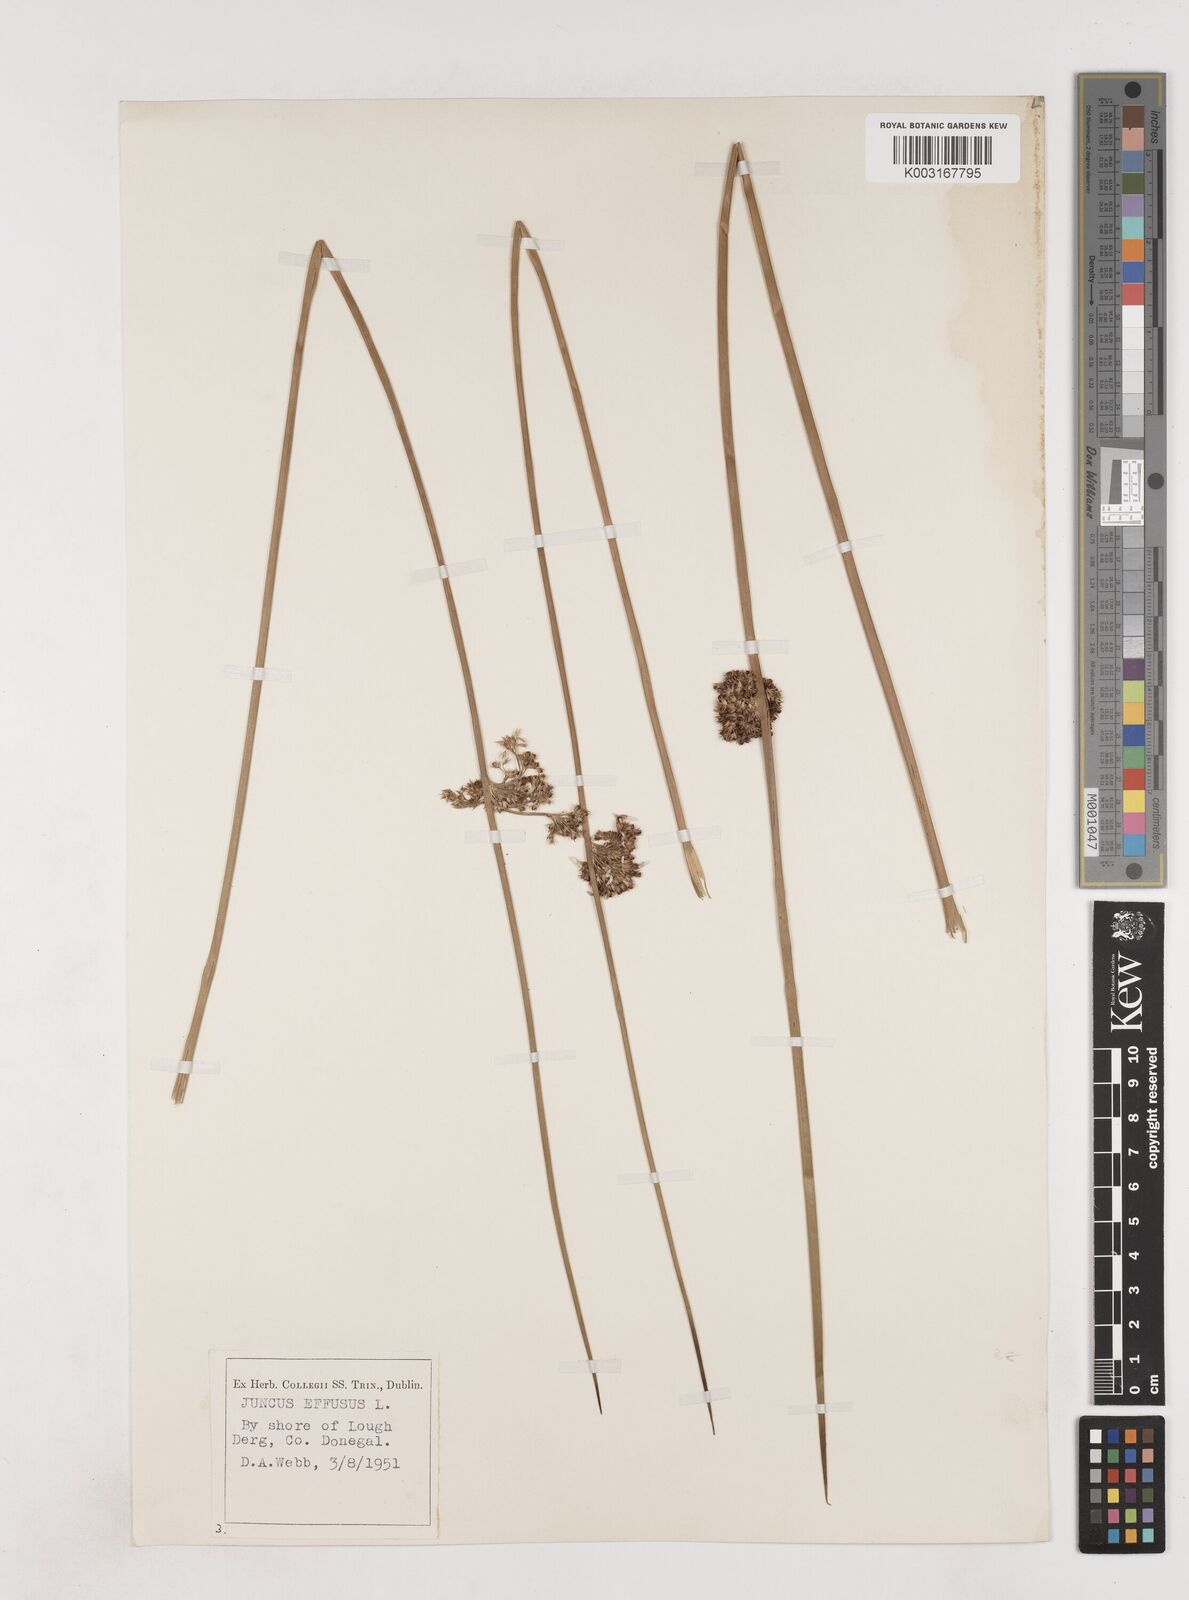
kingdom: Plantae
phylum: Tracheophyta
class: Liliopsida
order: Poales
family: Juncaceae
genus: Juncus
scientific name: Juncus effusus
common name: Soft rush
